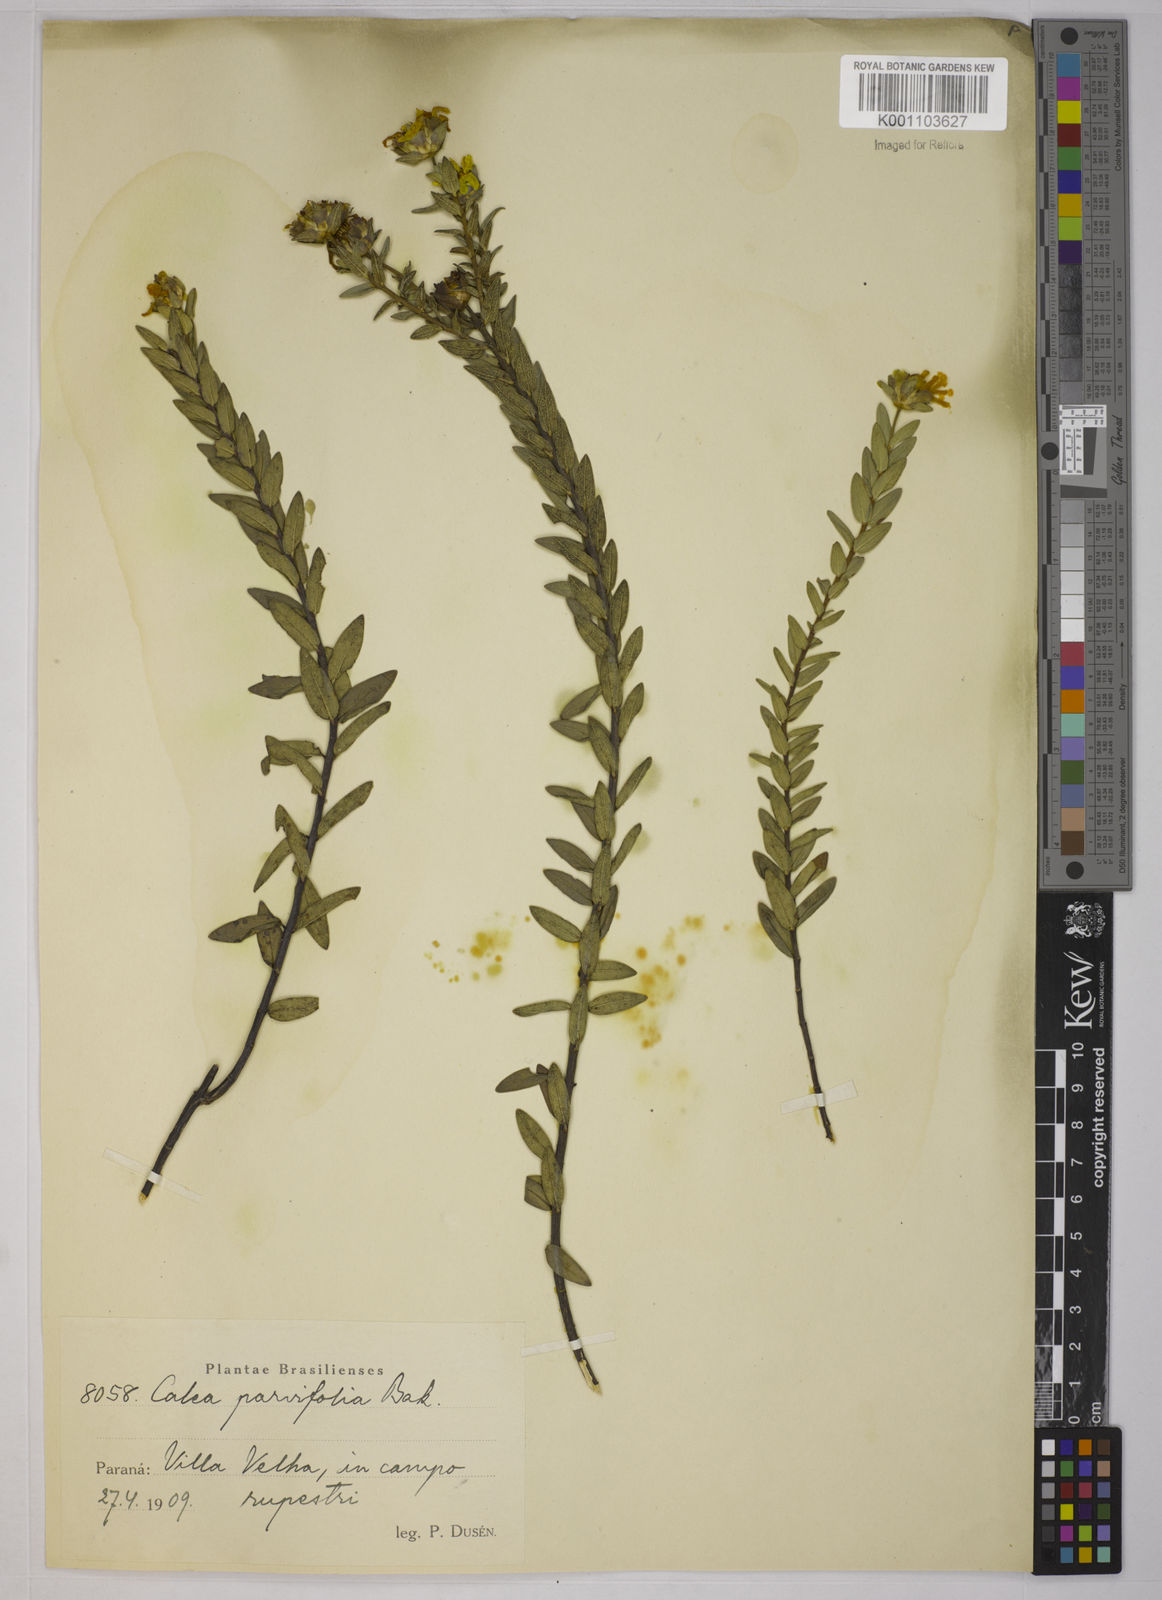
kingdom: Plantae
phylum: Tracheophyta
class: Magnoliopsida
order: Asterales
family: Asteraceae
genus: Calea
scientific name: Calea parvifolia
